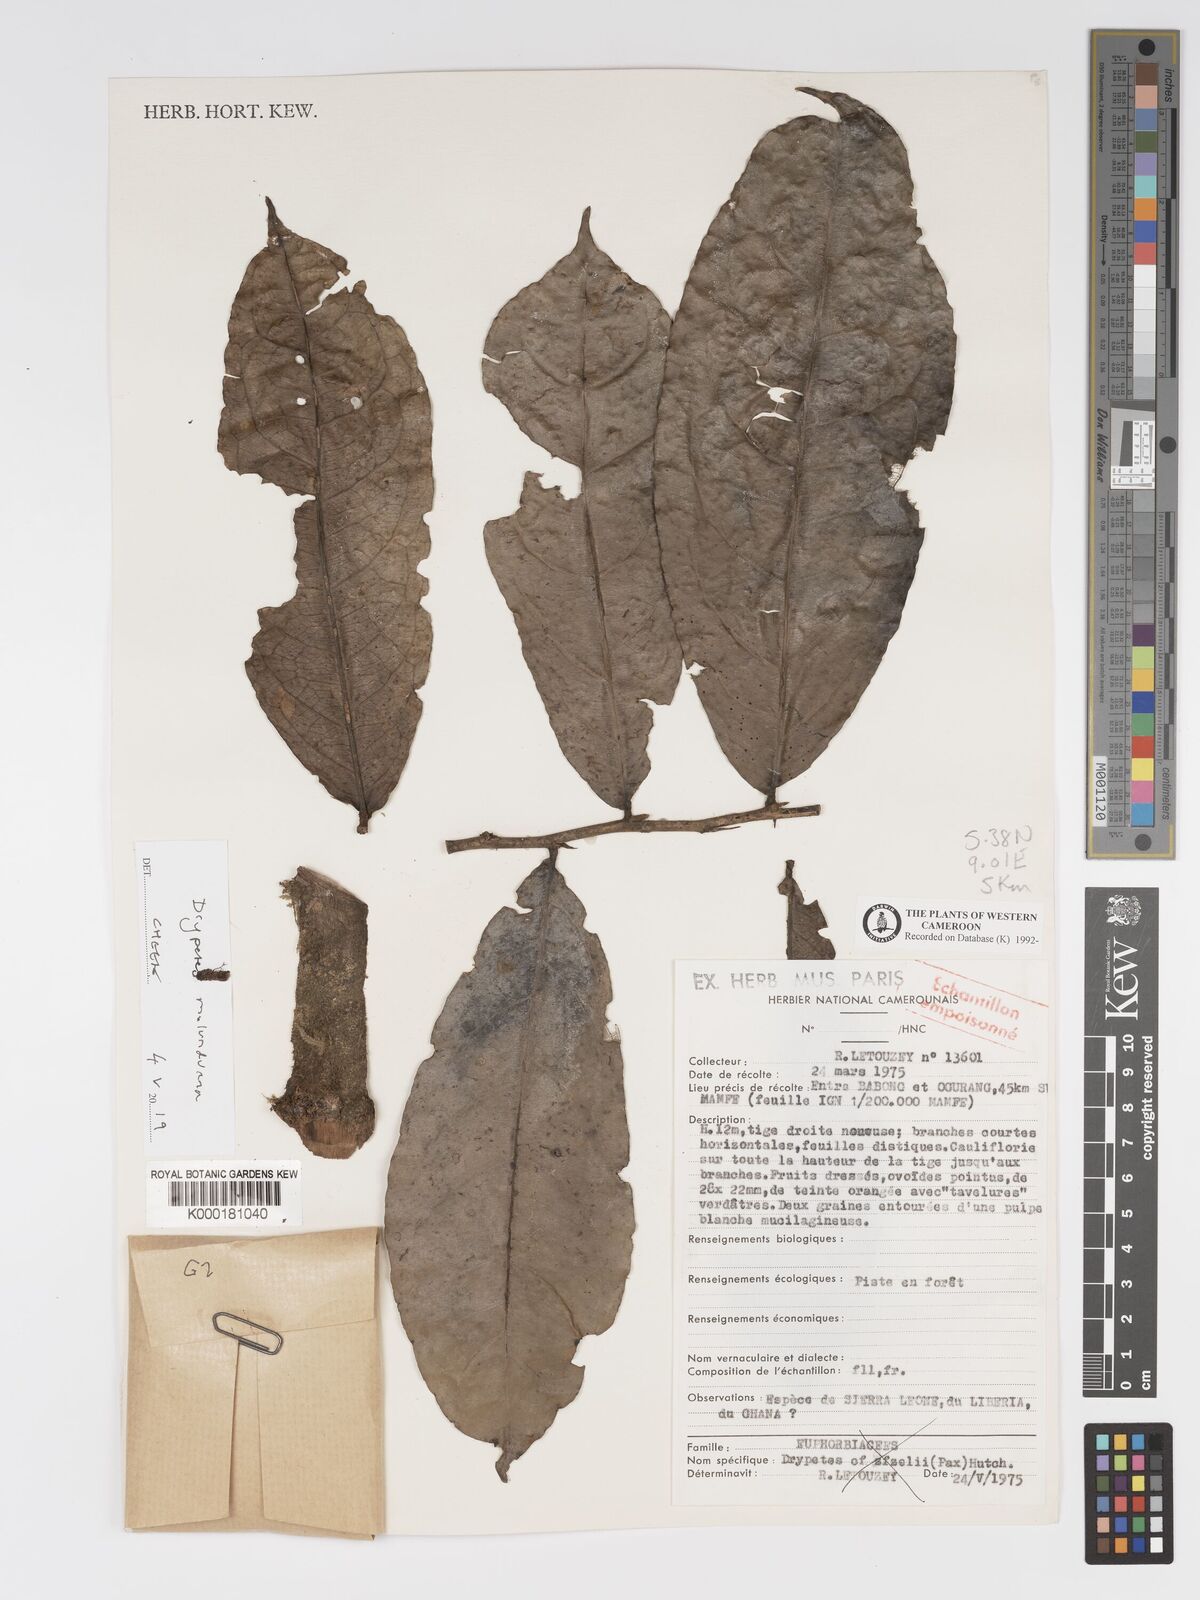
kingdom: Plantae
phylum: Tracheophyta
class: Magnoliopsida
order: Malpighiales
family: Putranjivaceae
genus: Drypetes
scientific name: Drypetes afzelii
